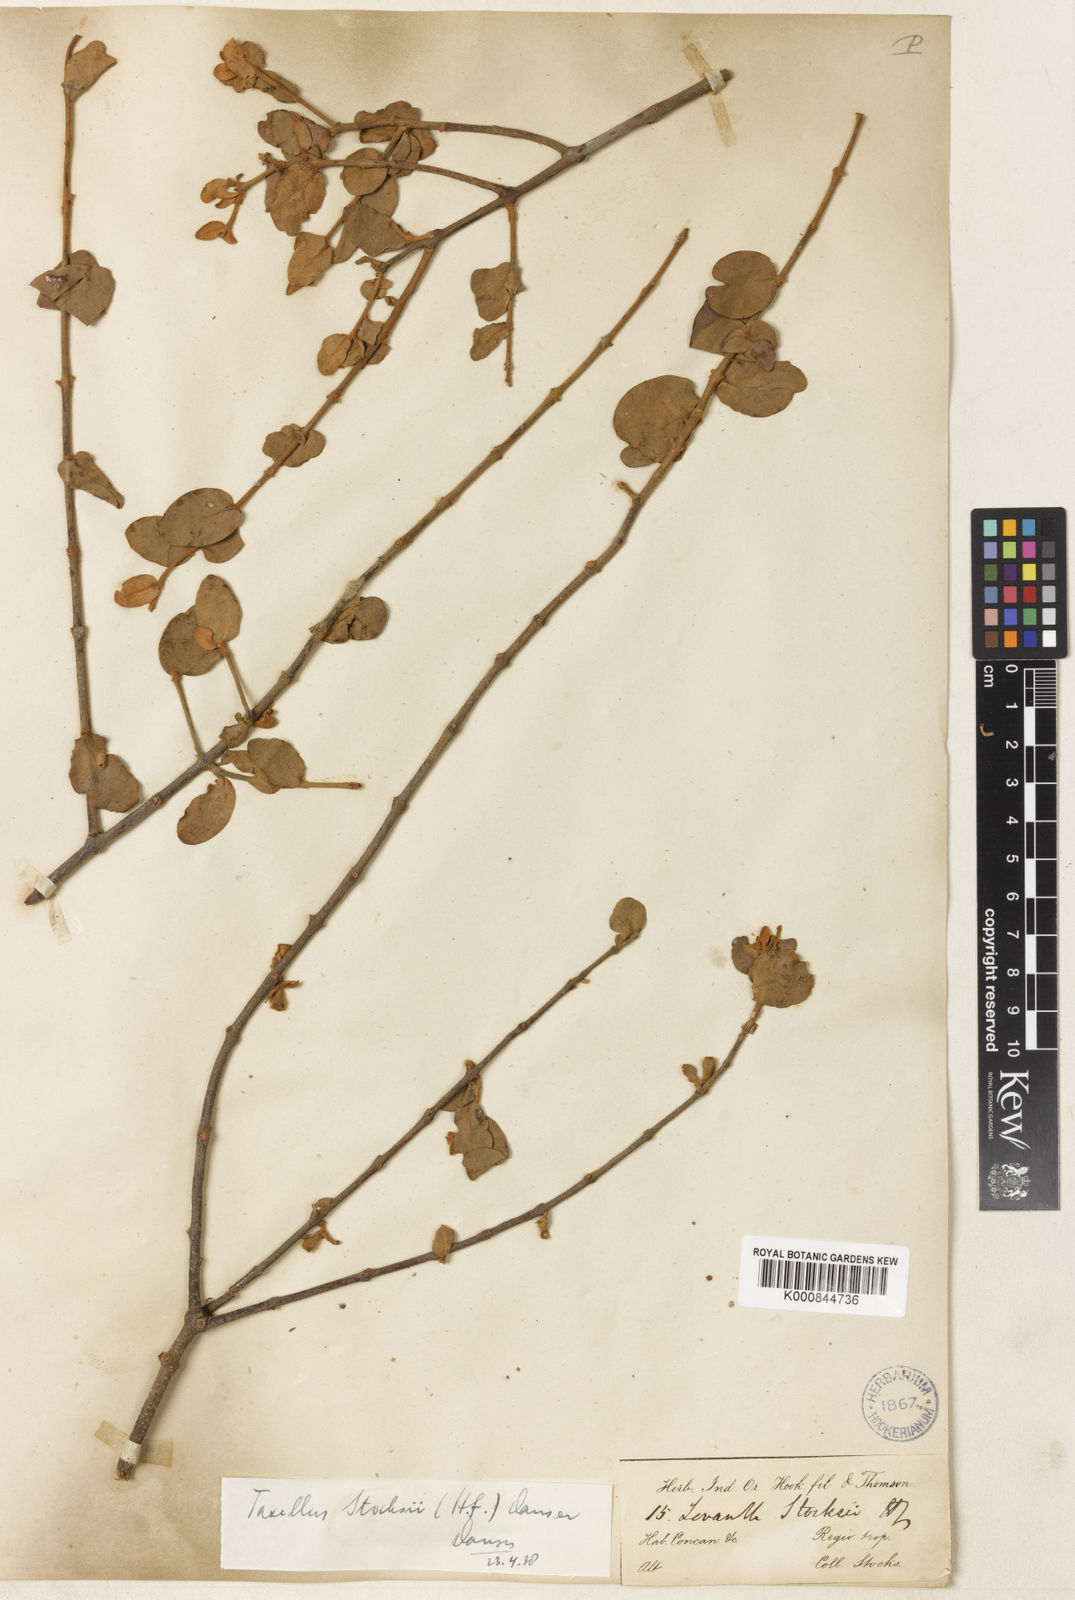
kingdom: Plantae
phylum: Tracheophyta
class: Magnoliopsida
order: Santalales
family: Loranthaceae
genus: Taxillus
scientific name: Taxillus
